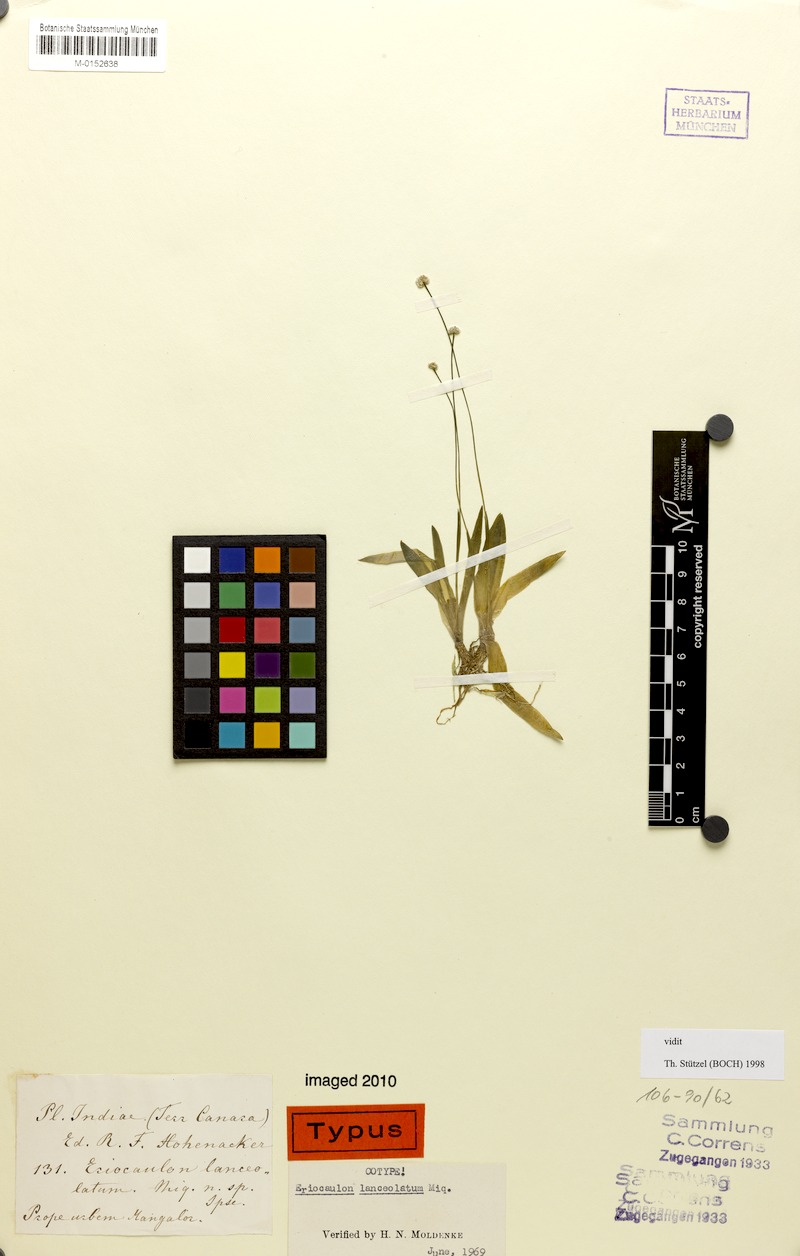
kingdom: Plantae
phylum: Tracheophyta
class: Liliopsida
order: Poales
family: Eriocaulaceae
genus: Eriocaulon
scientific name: Eriocaulon lanceolatum
